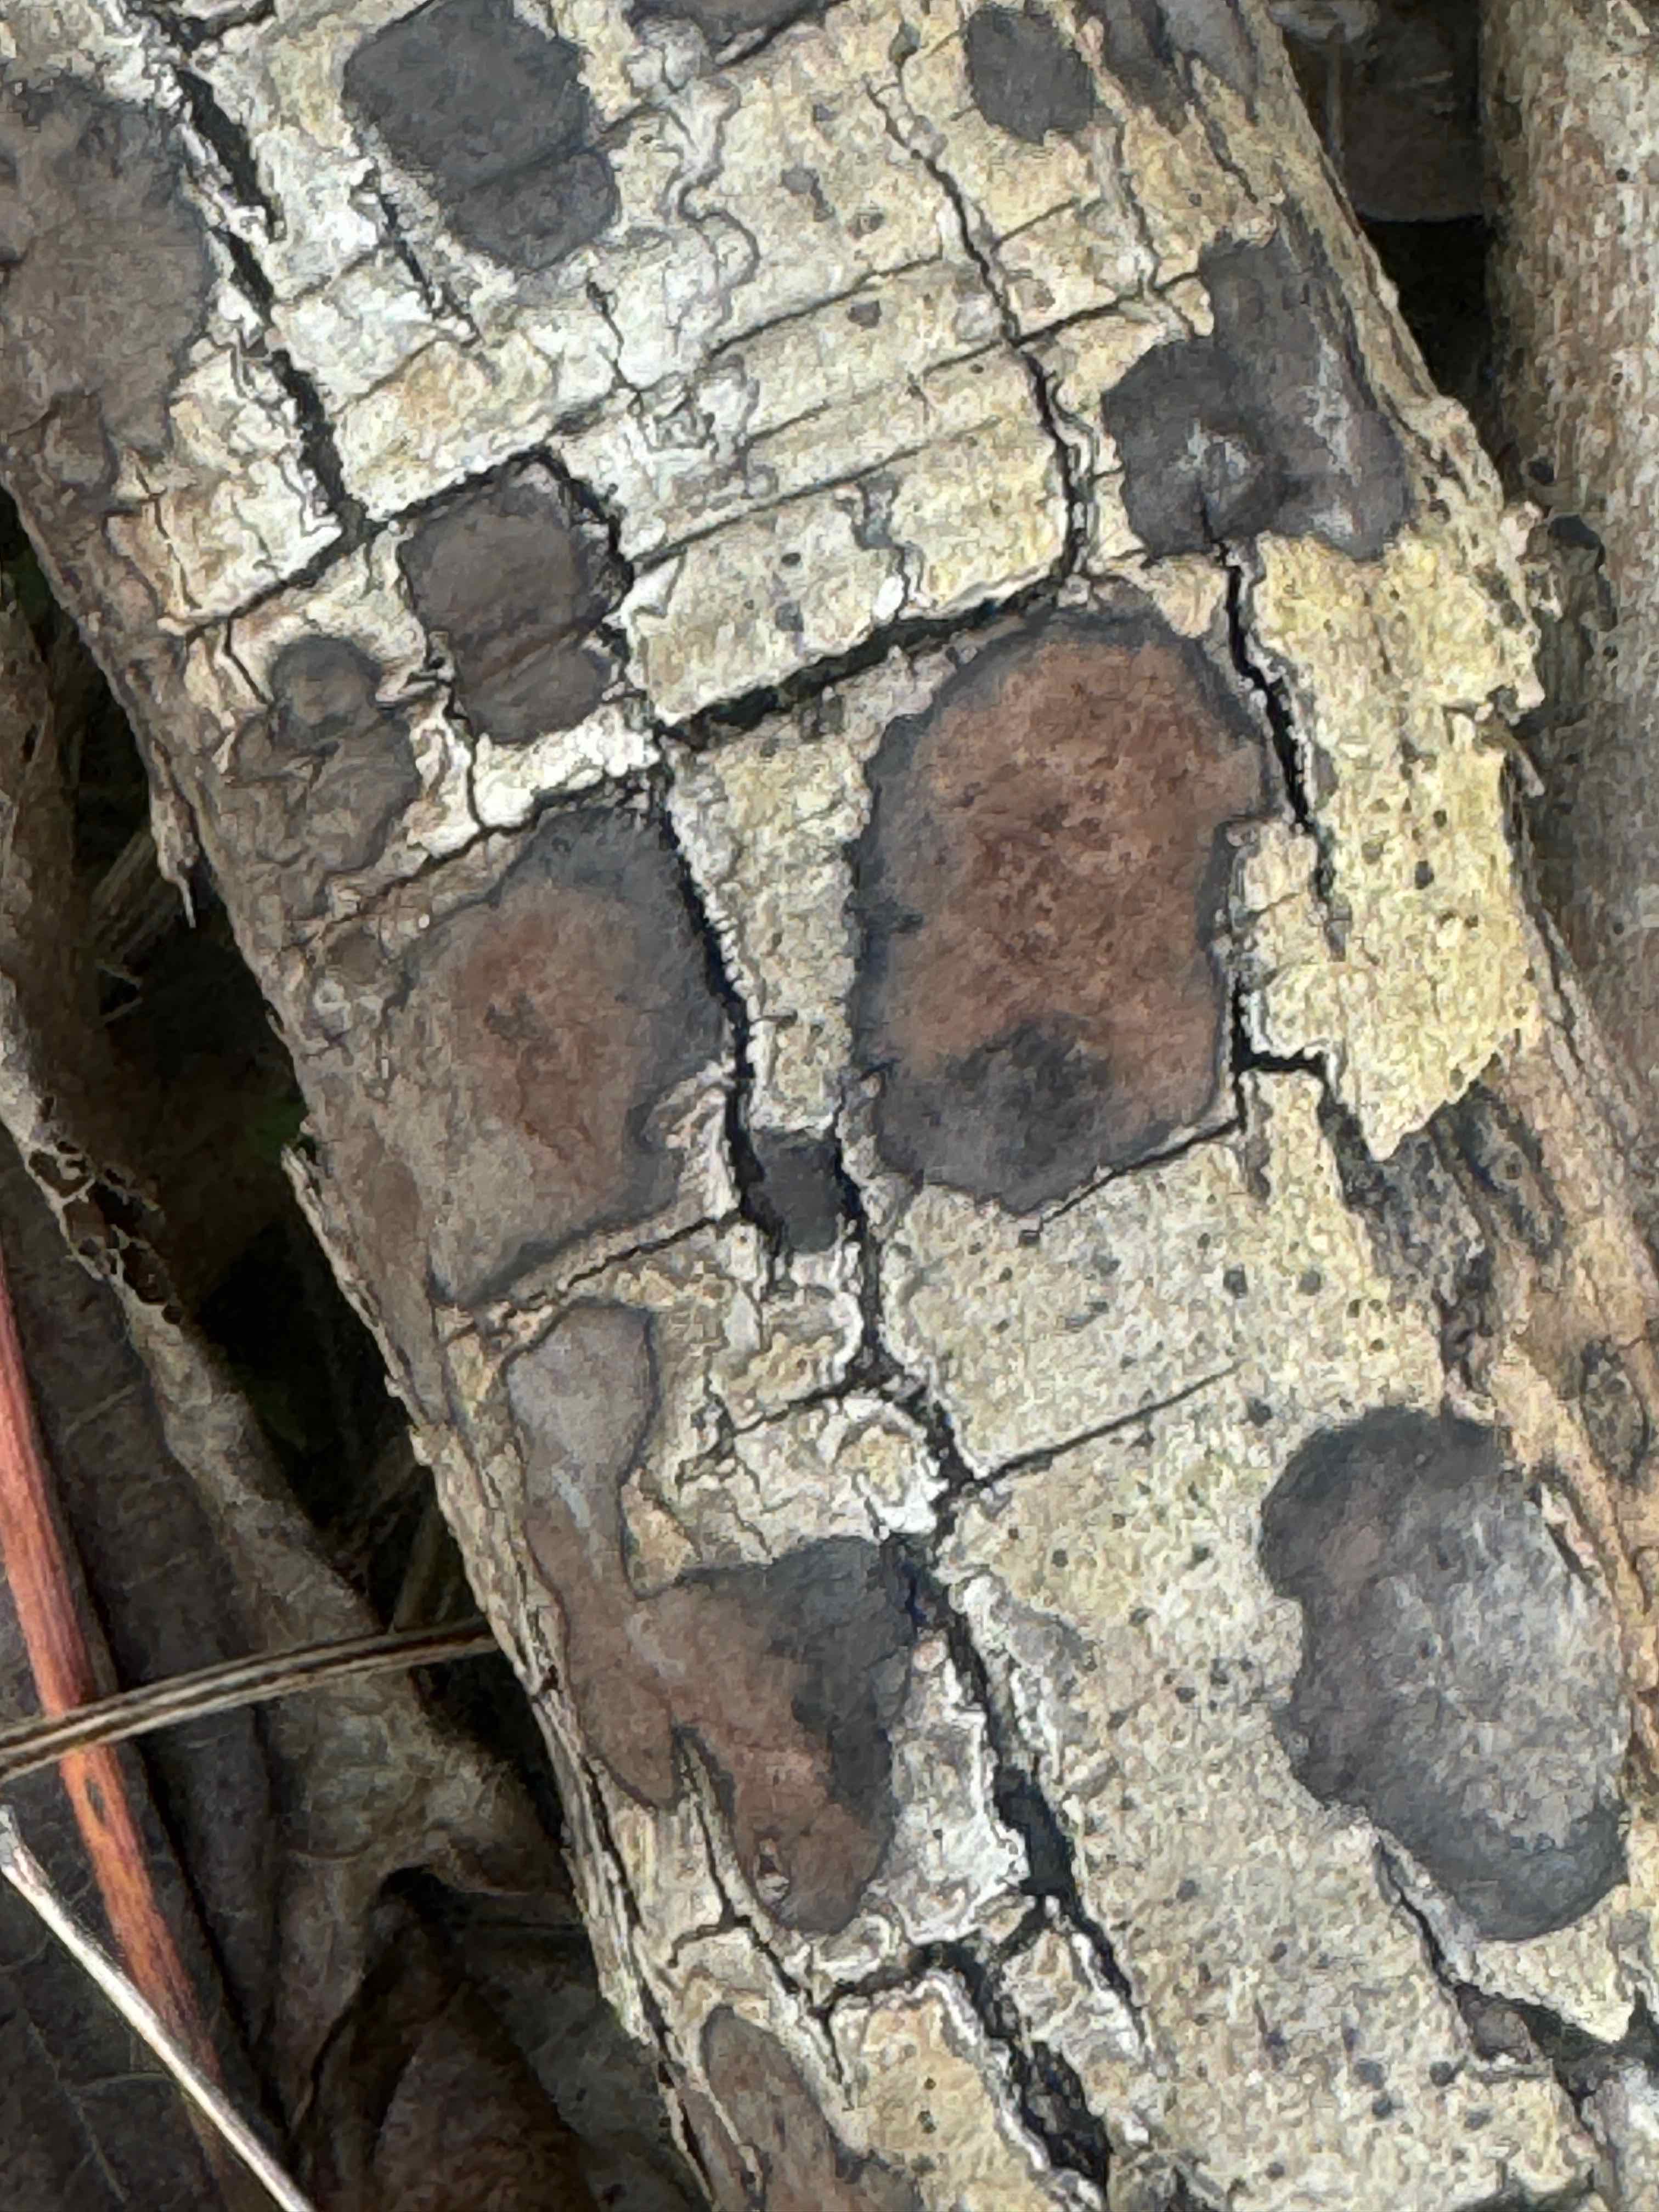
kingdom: Fungi
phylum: Ascomycota
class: Sordariomycetes
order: Xylariales
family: Hypoxylaceae
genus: Hypoxylon
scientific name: Hypoxylon petriniae
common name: nedsænket kulbær
